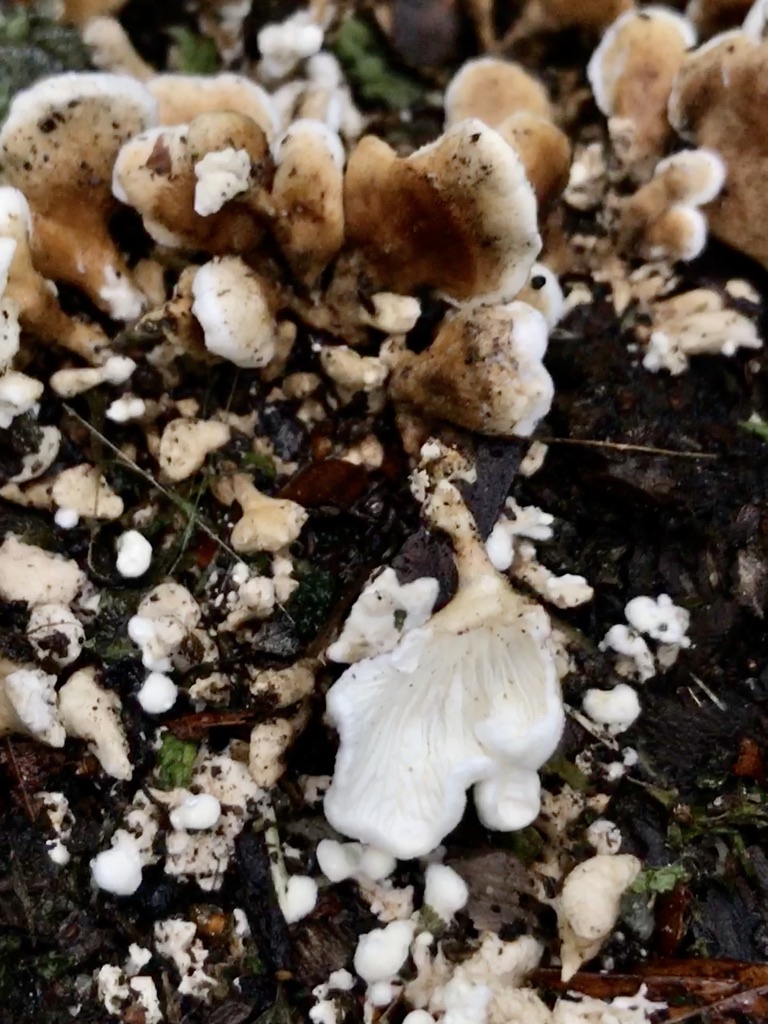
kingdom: Fungi
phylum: Basidiomycota
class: Agaricomycetes
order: Amylocorticiales
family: Amylocorticiaceae
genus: Plicaturopsis
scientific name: Plicaturopsis crispa
